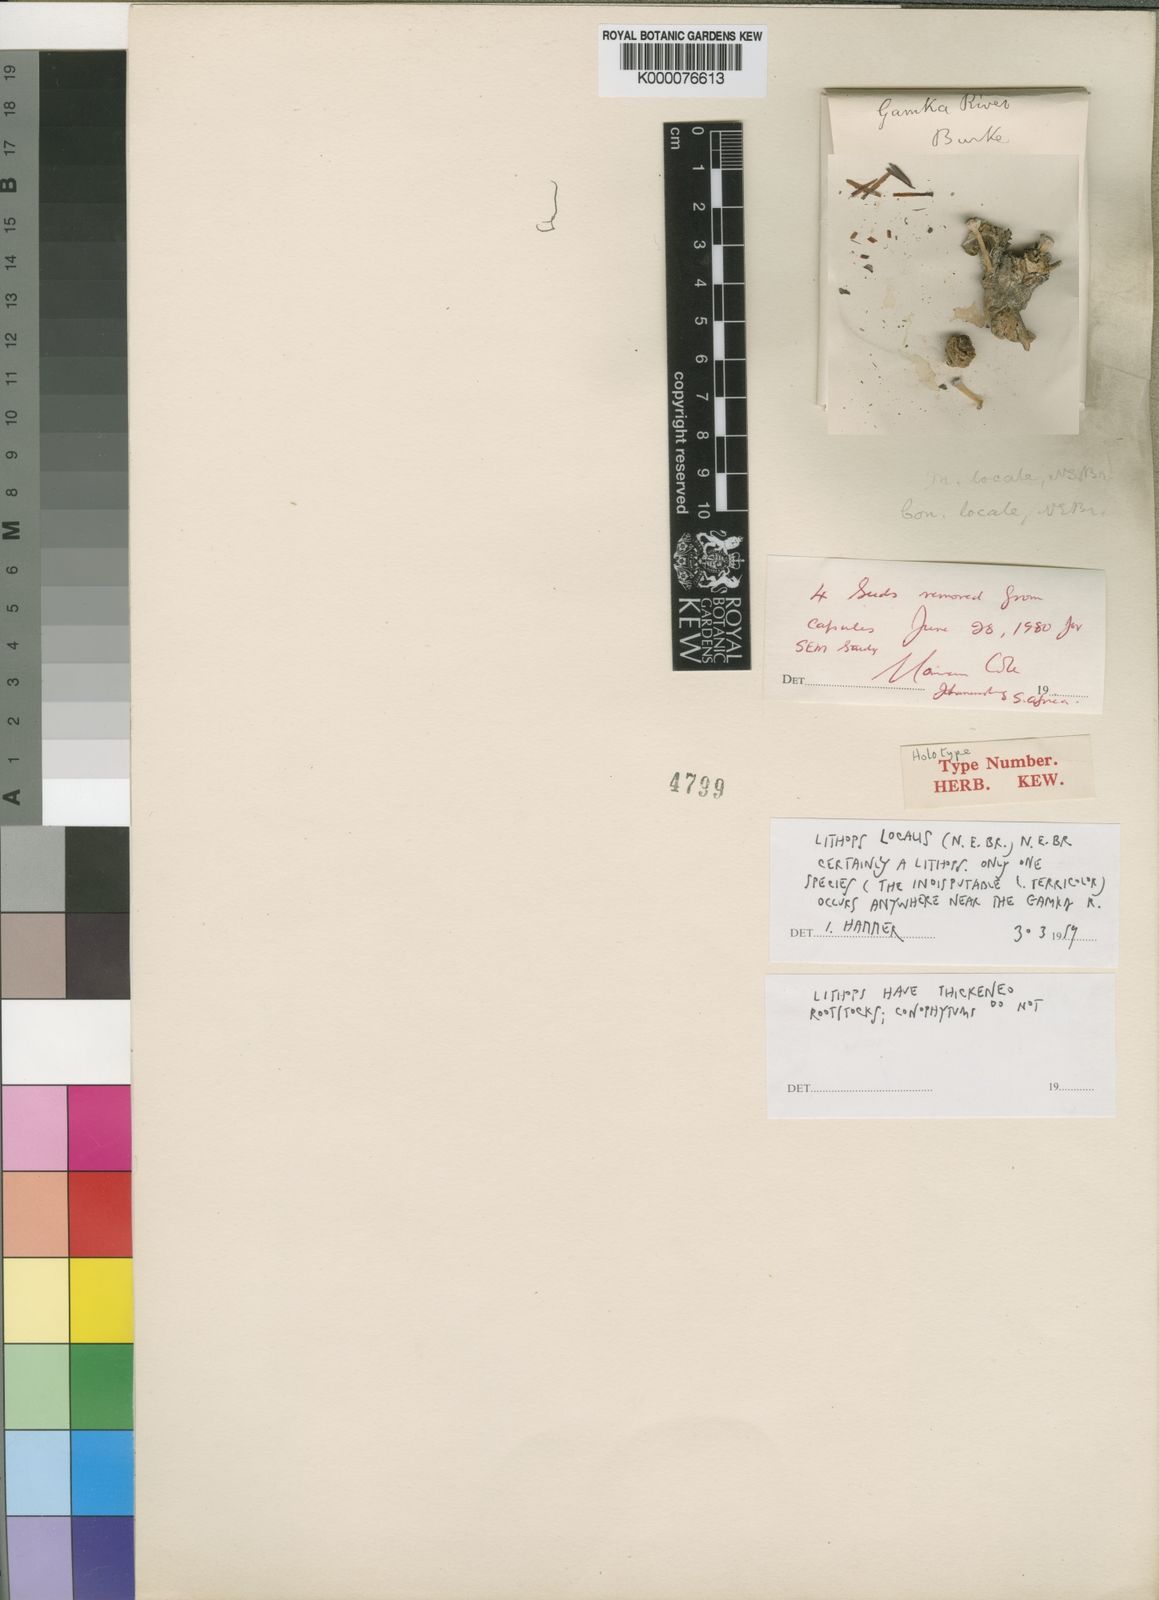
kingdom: Plantae
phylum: Tracheophyta
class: Magnoliopsida
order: Caryophyllales
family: Aizoaceae
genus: Lithops
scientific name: Lithops localis
